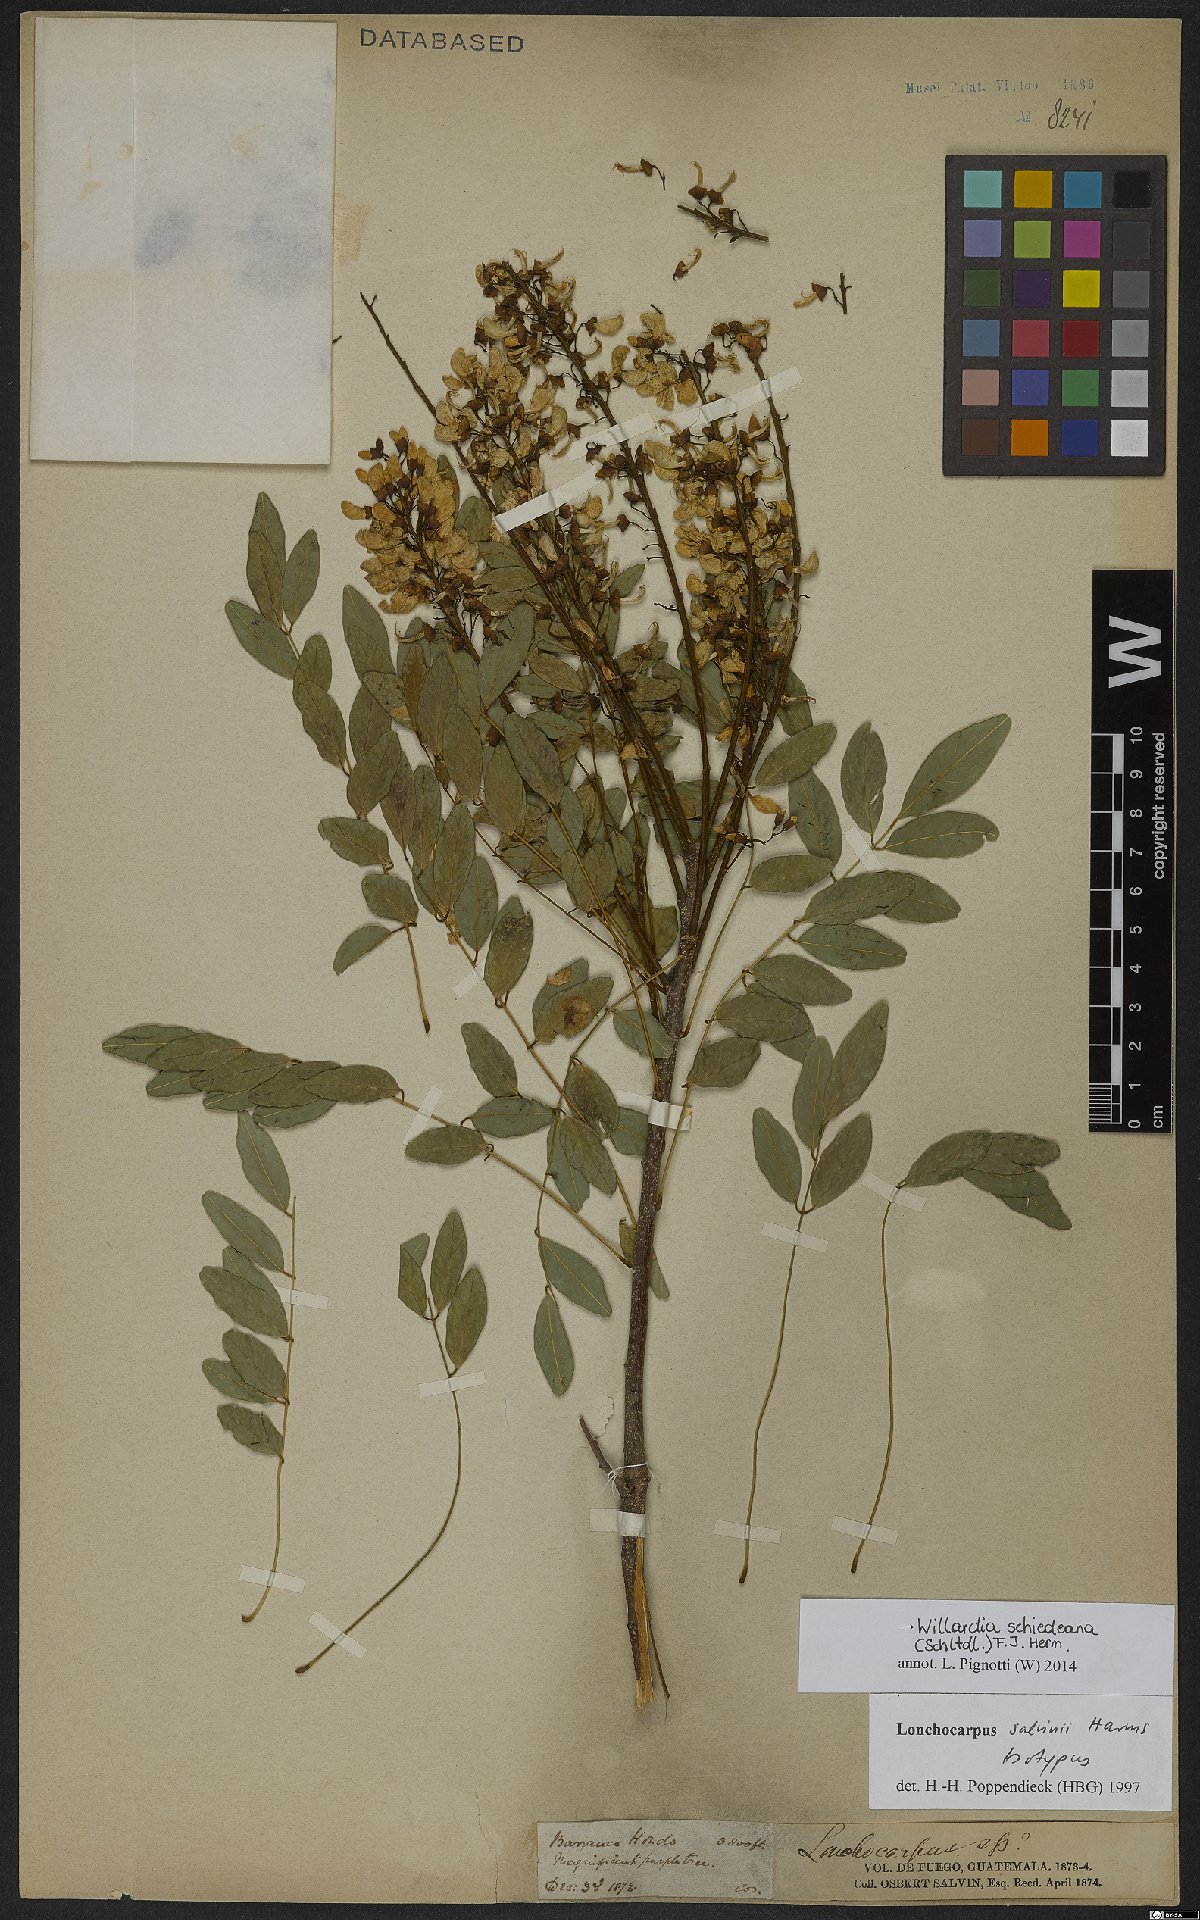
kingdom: Plantae
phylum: Tracheophyta
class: Magnoliopsida
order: Fabales
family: Fabaceae
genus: Lonchocarpus
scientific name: Lonchocarpus schiedeanus
